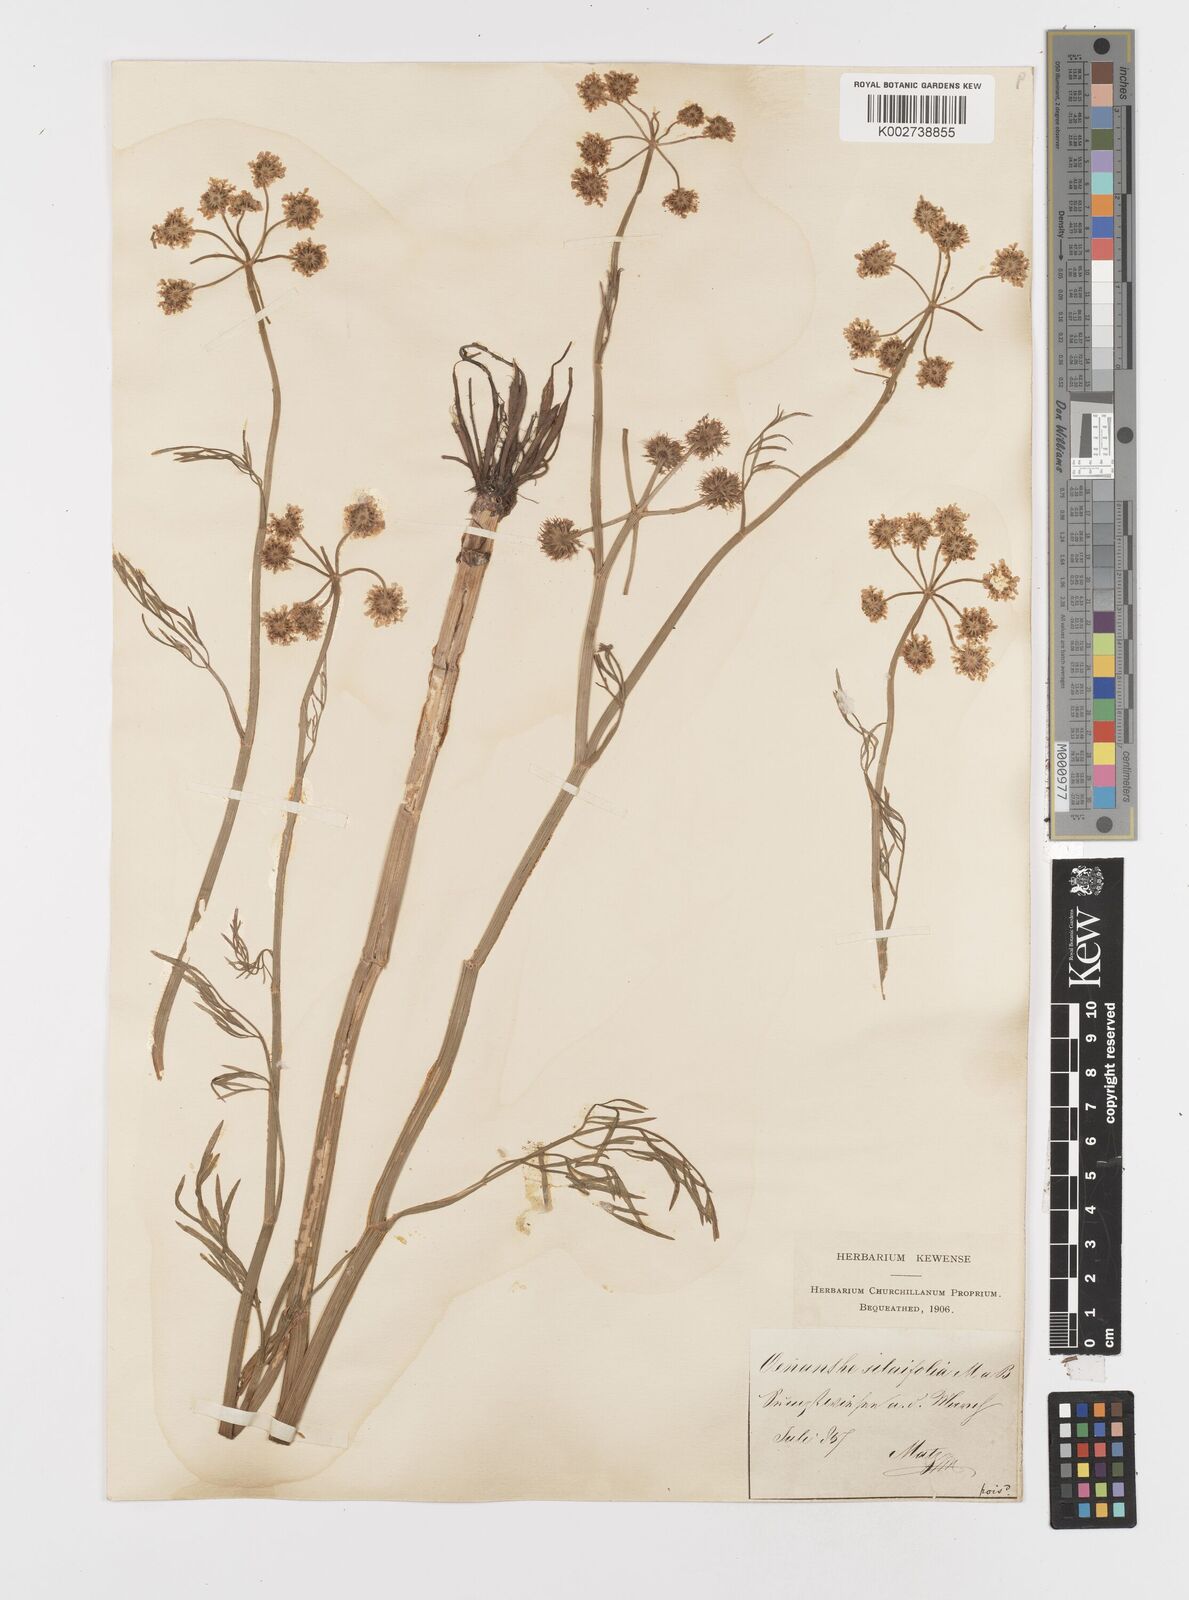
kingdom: Plantae
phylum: Tracheophyta
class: Magnoliopsida
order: Apiales
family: Apiaceae
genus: Oenanthe
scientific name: Oenanthe silaifolia
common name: Narrow-leaved water-dropwort
